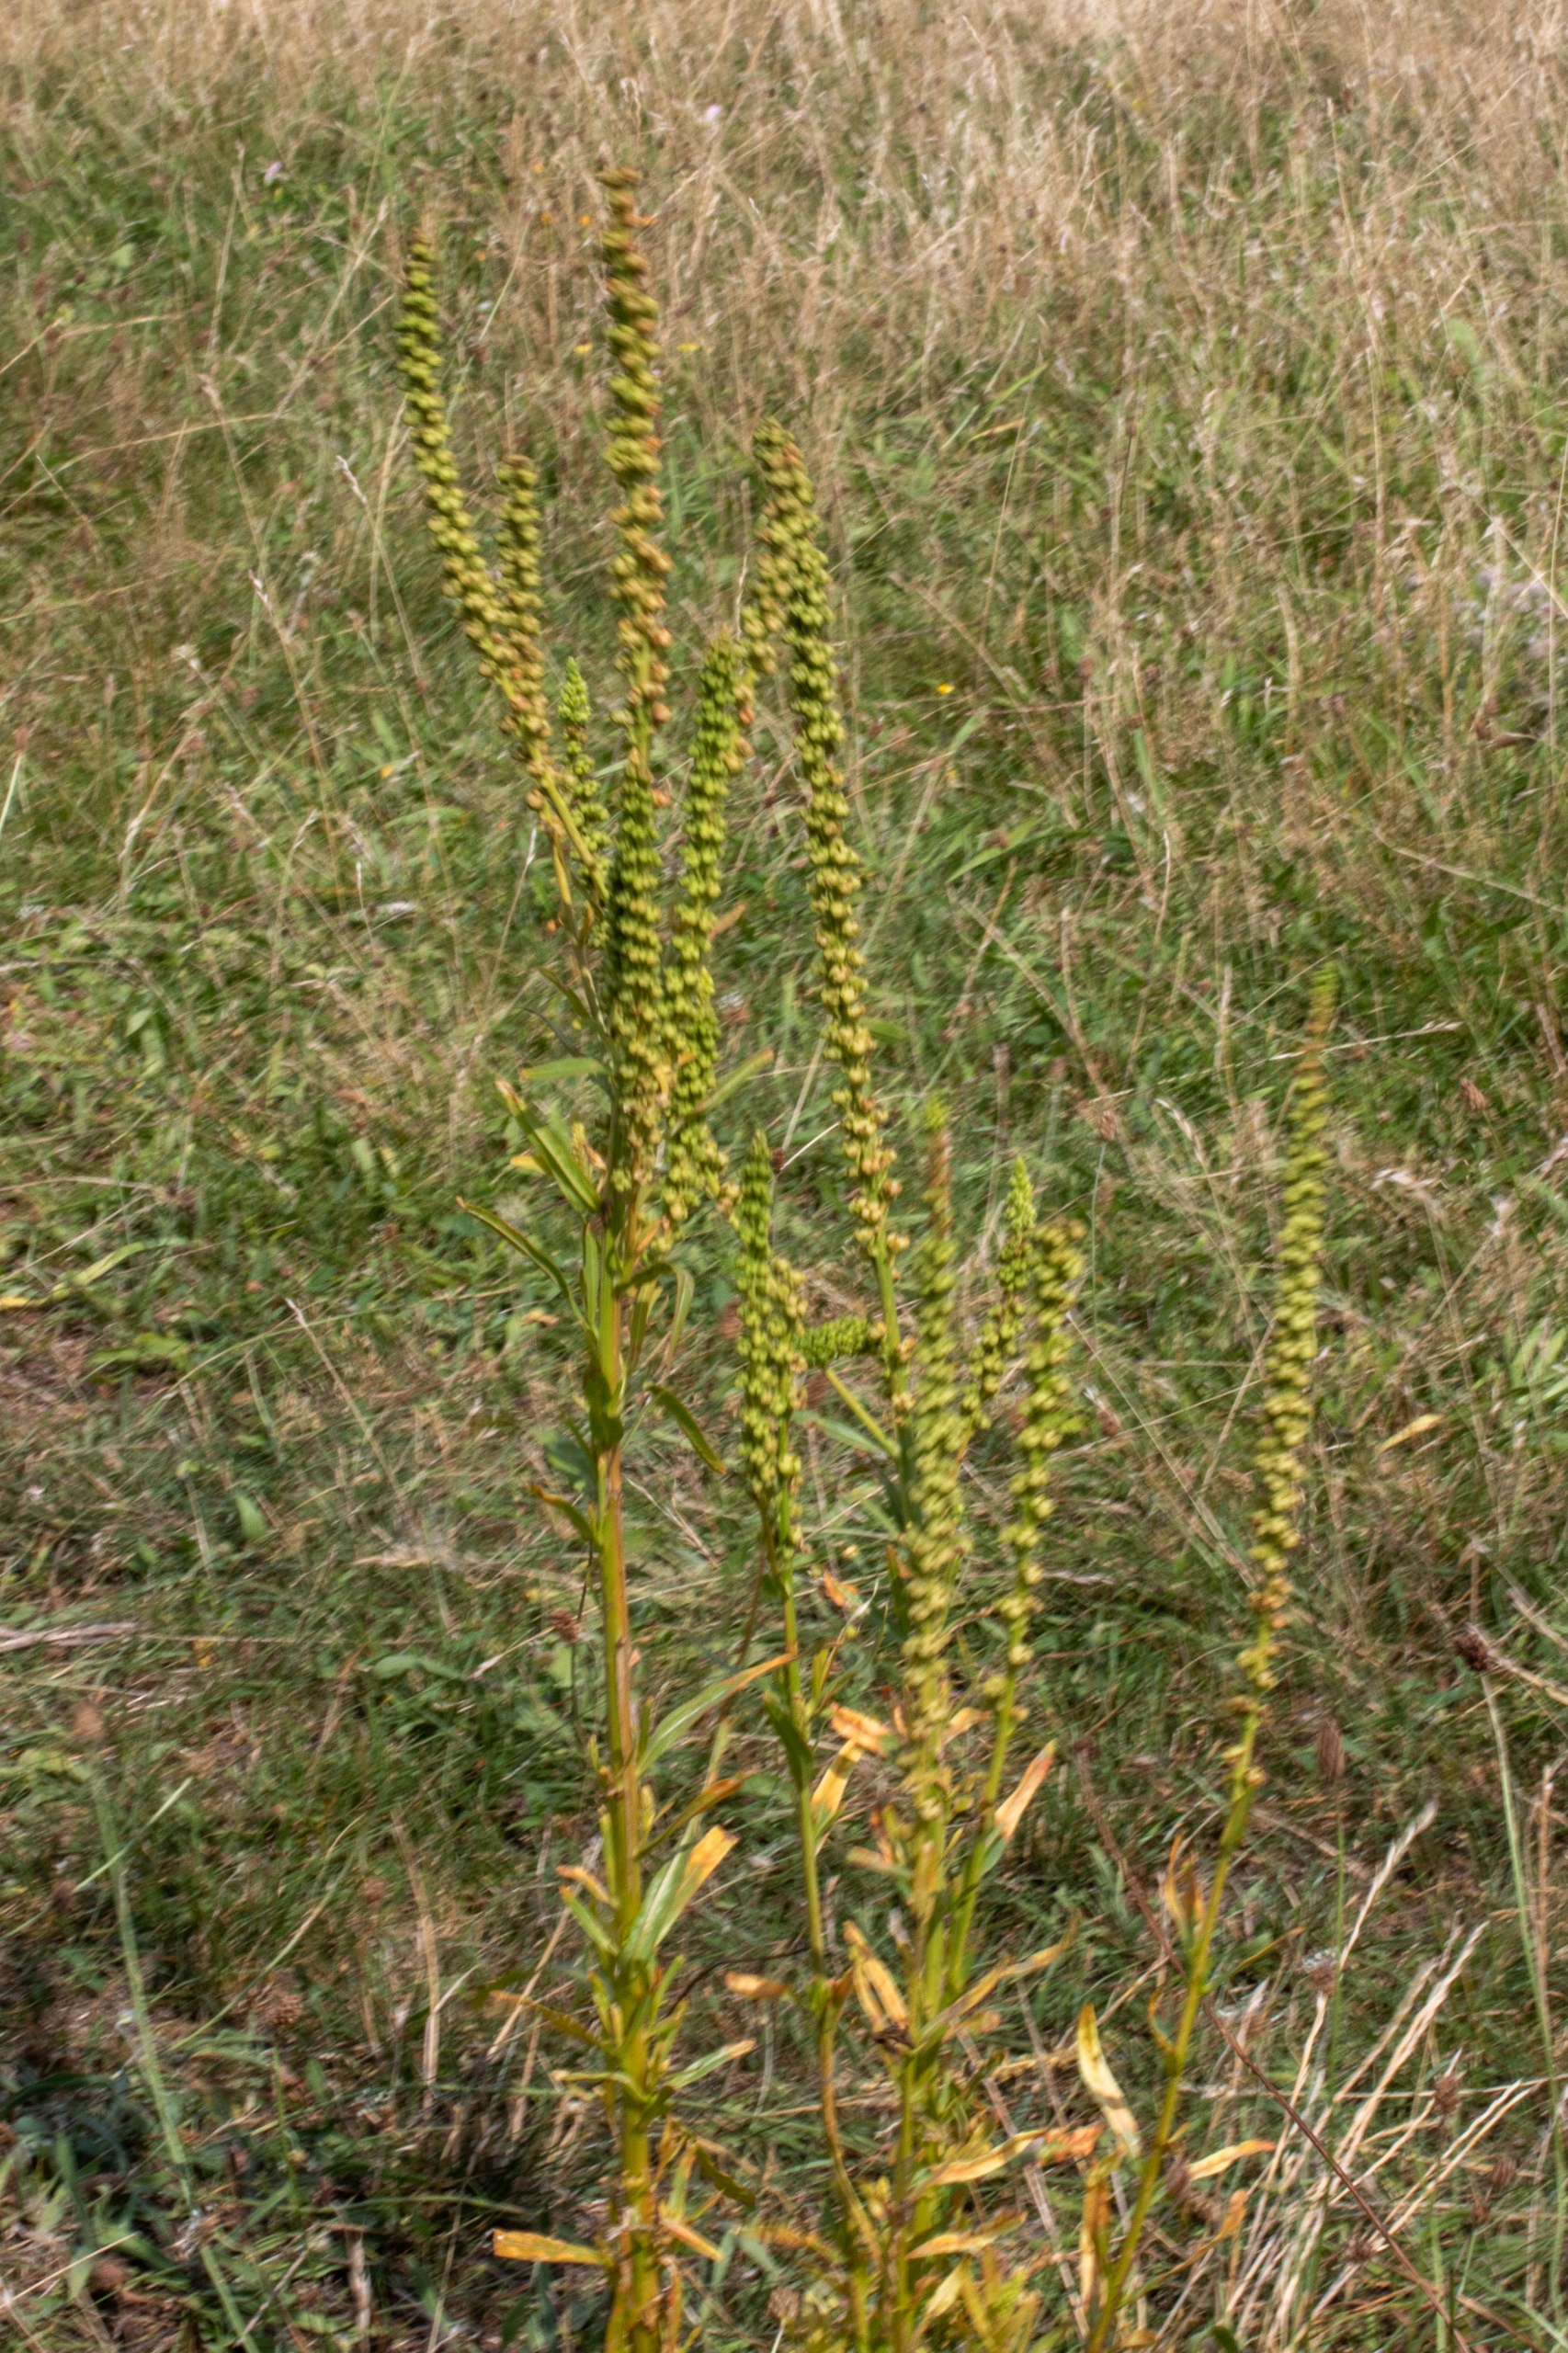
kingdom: Plantae
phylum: Tracheophyta
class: Magnoliopsida
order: Brassicales
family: Resedaceae
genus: Reseda
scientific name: Reseda luteola
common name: Farve-reseda
